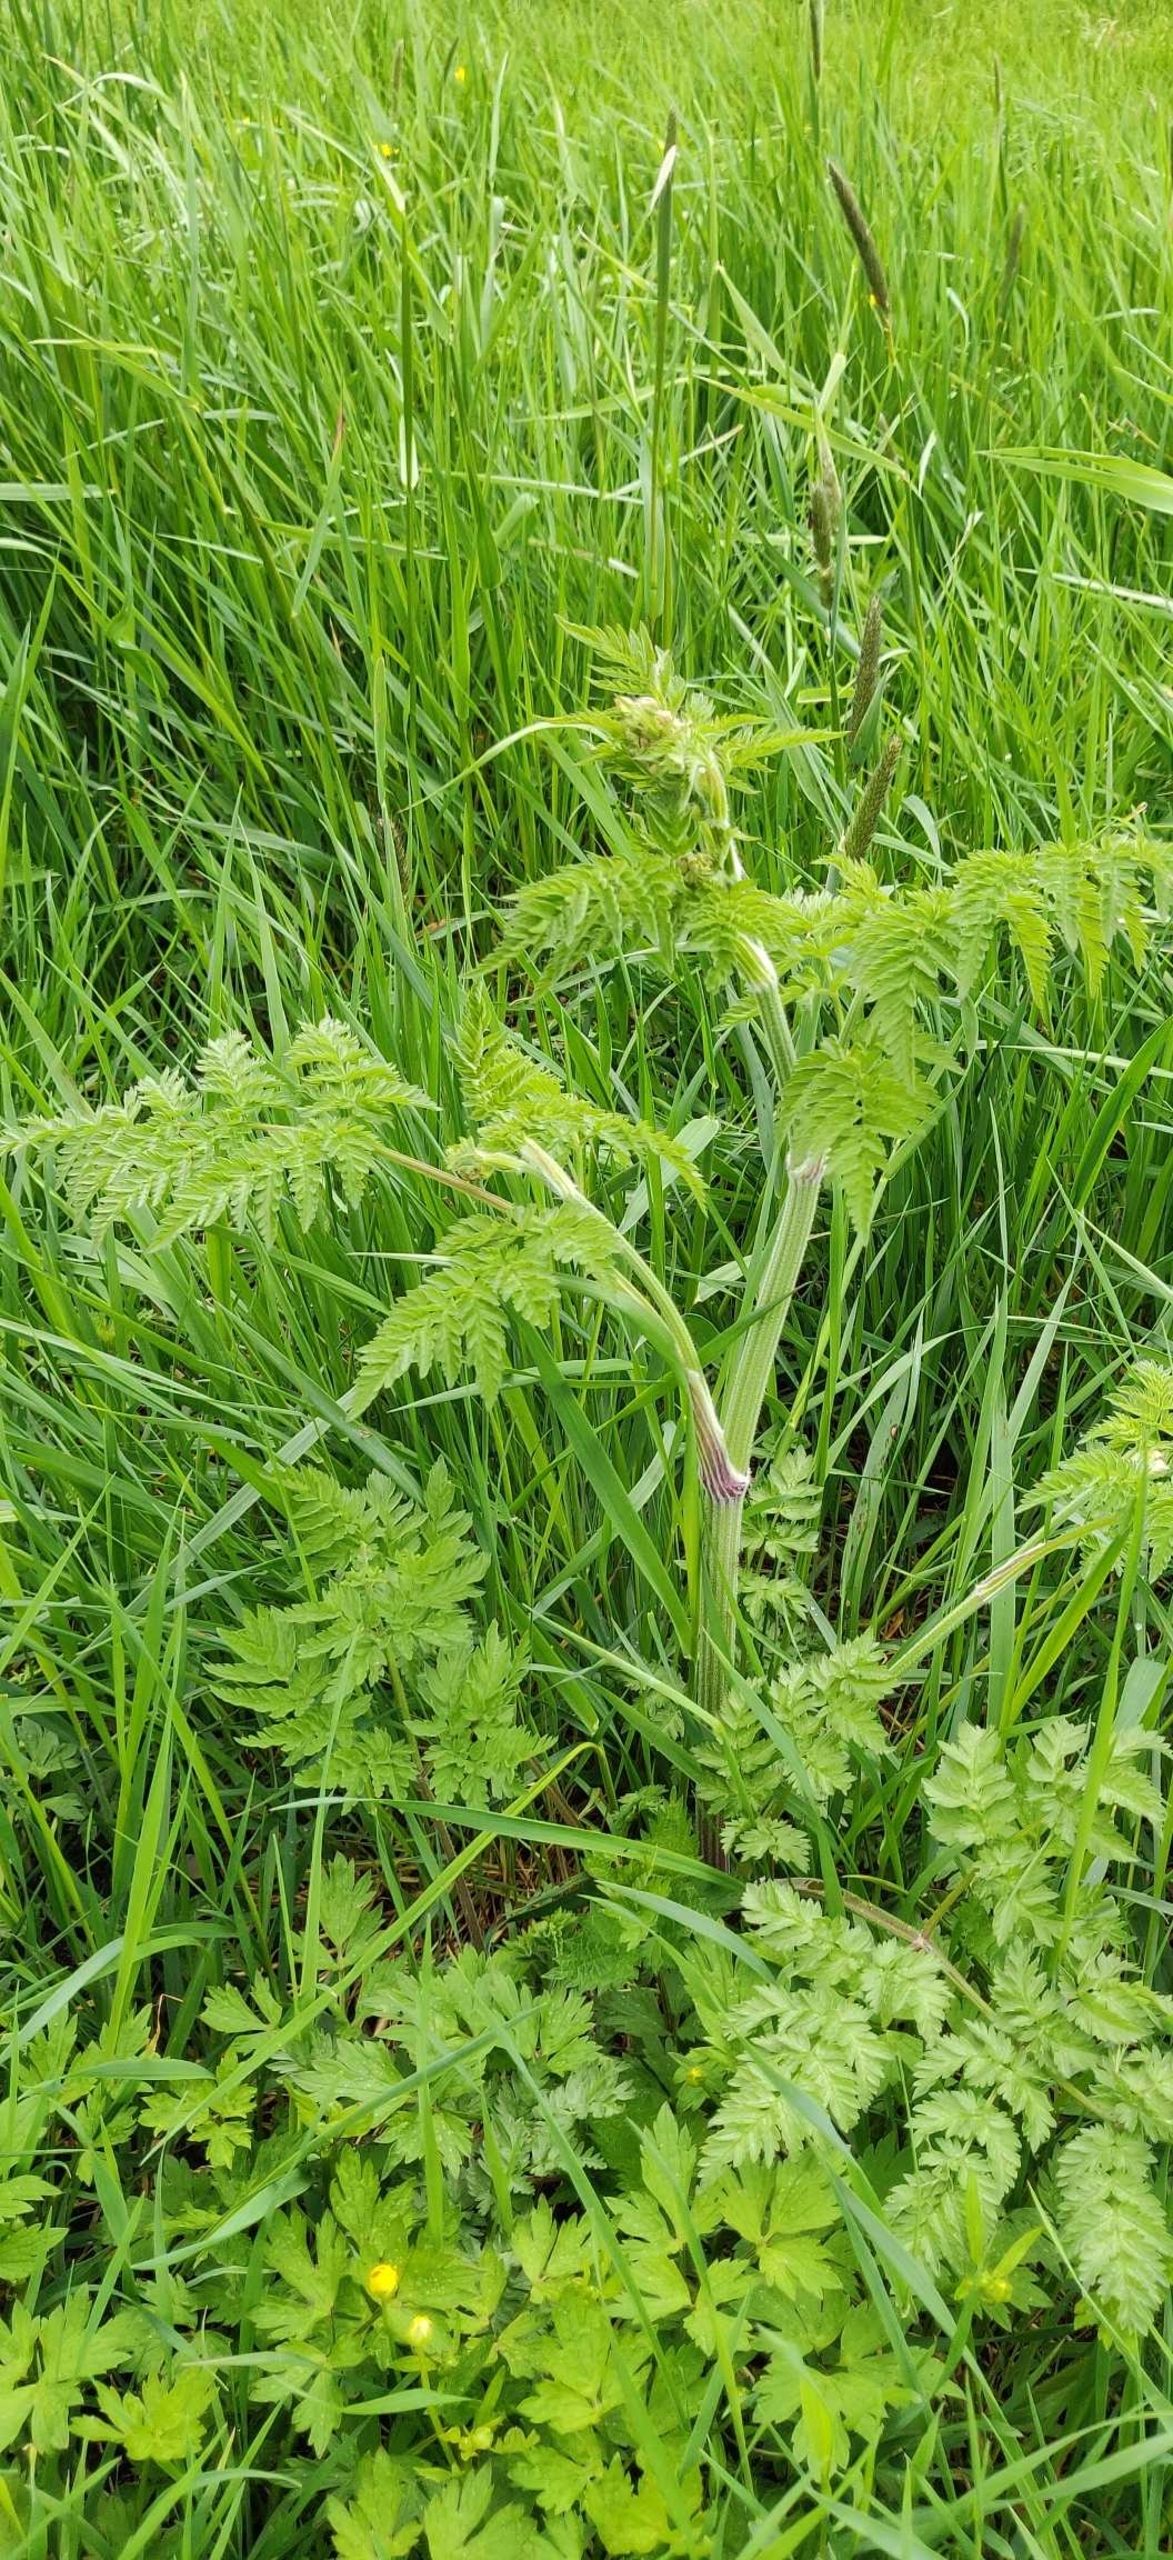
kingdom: Plantae
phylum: Tracheophyta
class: Magnoliopsida
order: Apiales
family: Apiaceae
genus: Anthriscus
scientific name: Anthriscus sylvestris
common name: Vild kørvel
